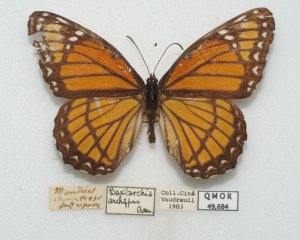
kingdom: Animalia
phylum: Arthropoda
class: Insecta
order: Lepidoptera
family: Nymphalidae
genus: Limenitis
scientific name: Limenitis archippus
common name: Viceroy
